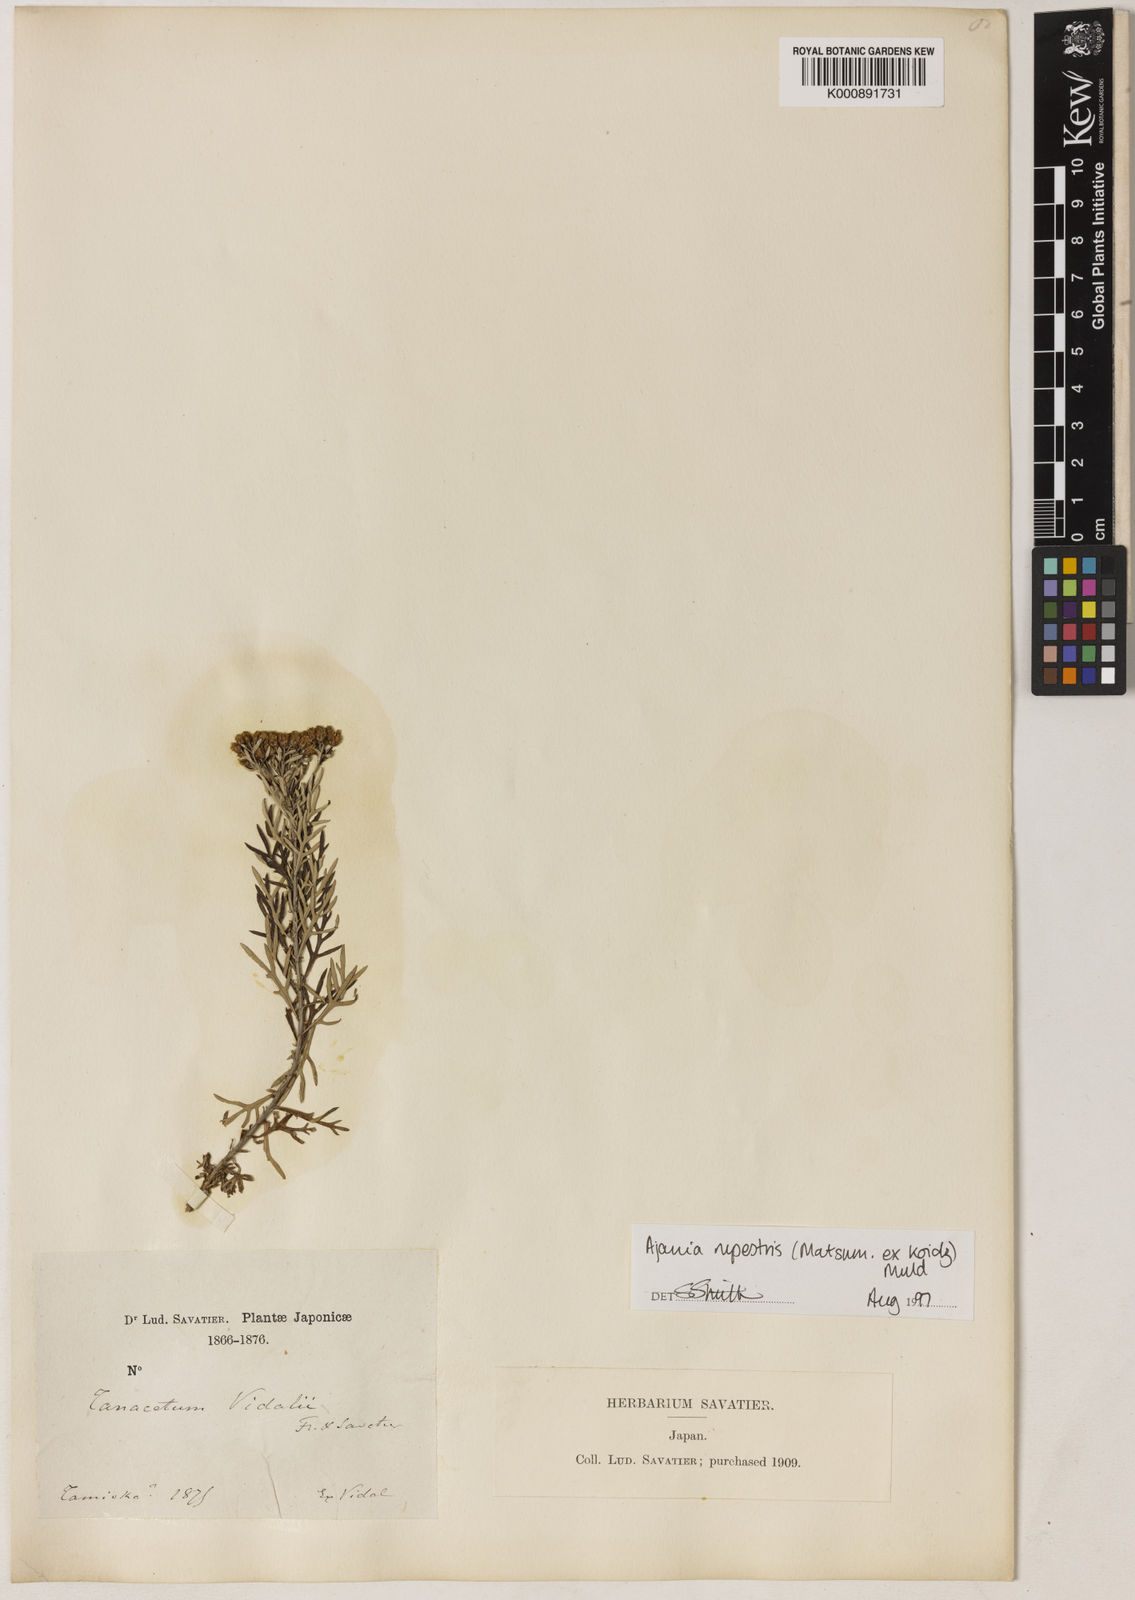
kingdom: Plantae
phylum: Tracheophyta
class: Magnoliopsida
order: Asterales
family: Asteraceae
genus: Ajania
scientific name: Ajania
